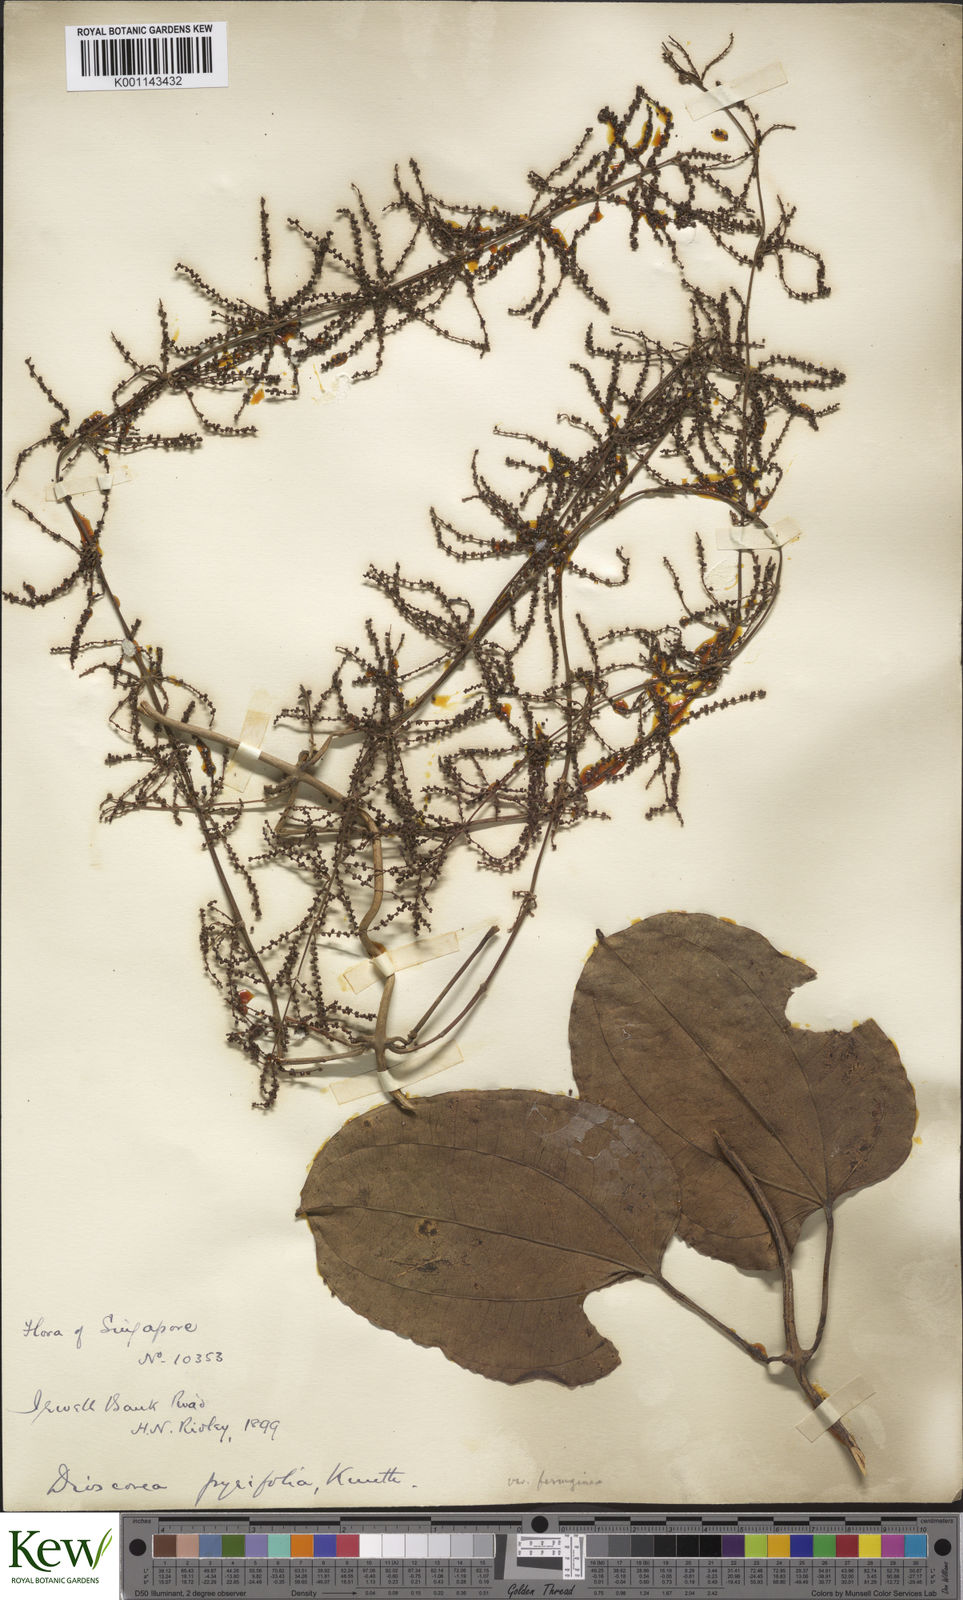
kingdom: Plantae
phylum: Tracheophyta
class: Liliopsida
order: Dioscoreales
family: Dioscoreaceae
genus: Dioscorea
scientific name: Dioscorea pyrifolia
